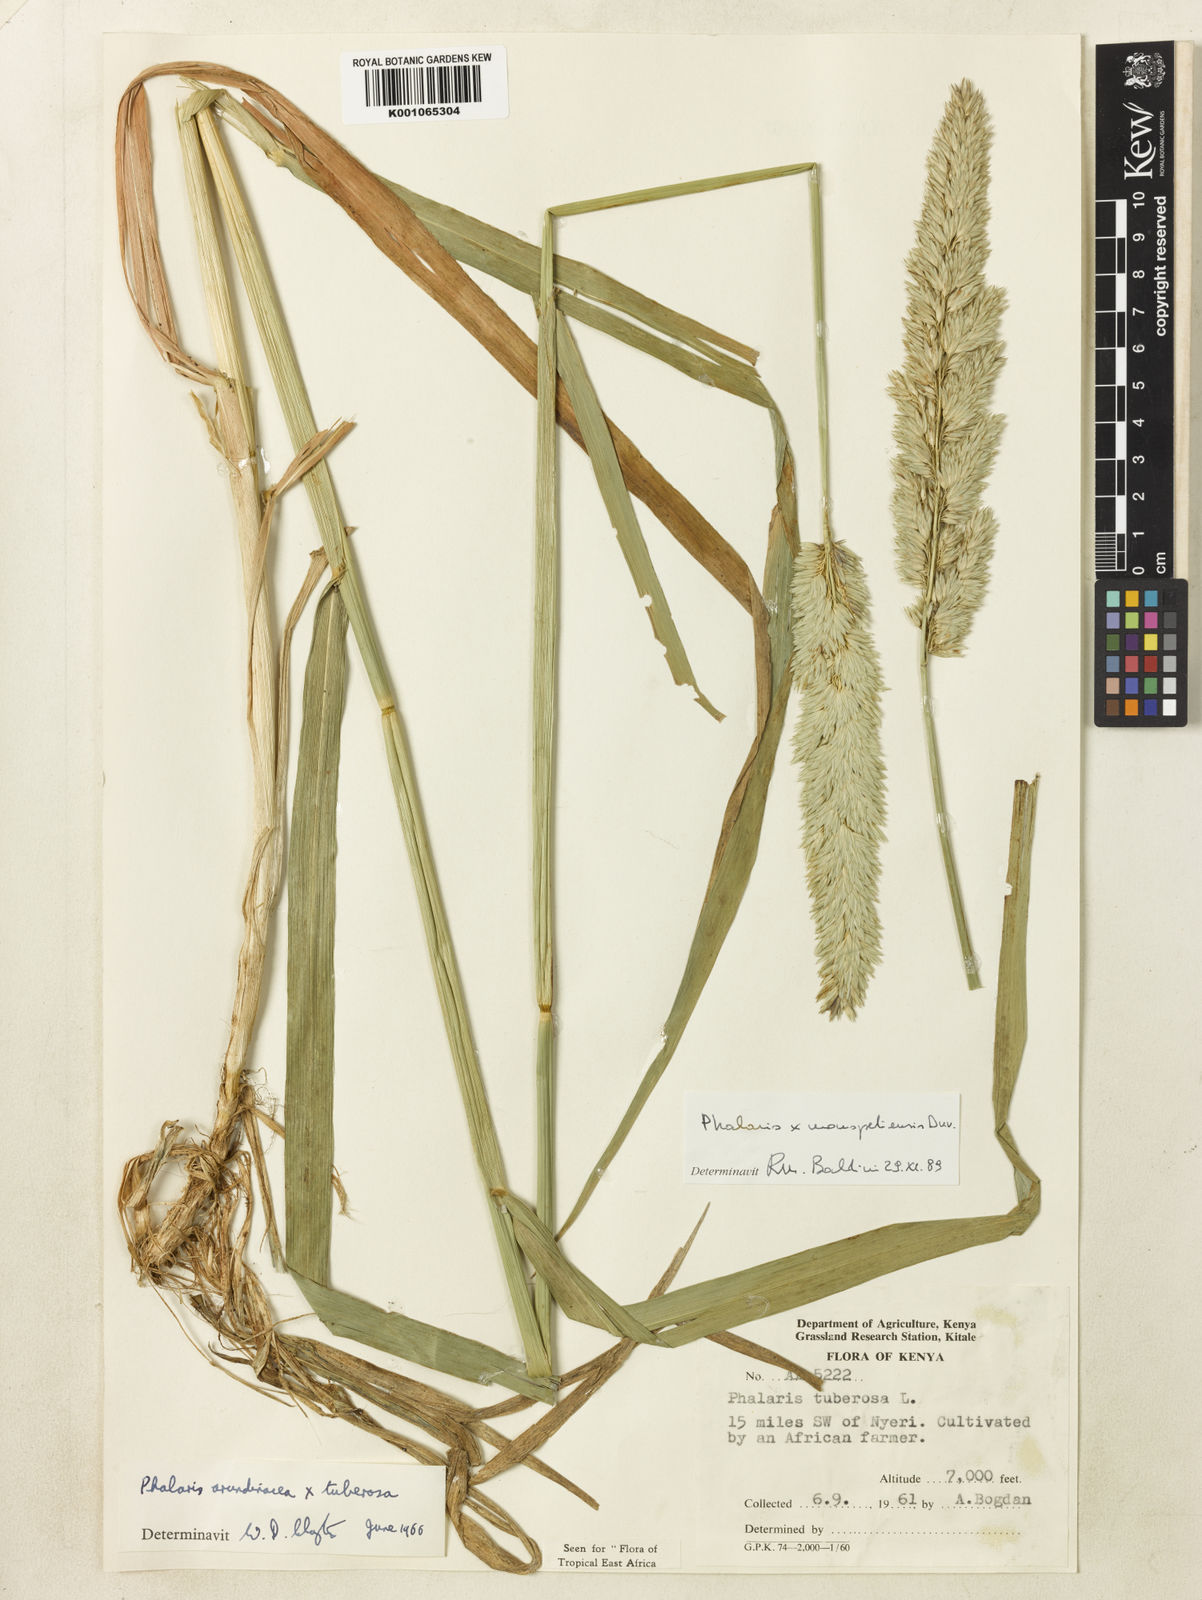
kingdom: Plantae
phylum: Tracheophyta
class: Liliopsida
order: Poales
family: Poaceae
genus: Phalaris
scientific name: Phalaris arundinacea
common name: Reed canary-grass
